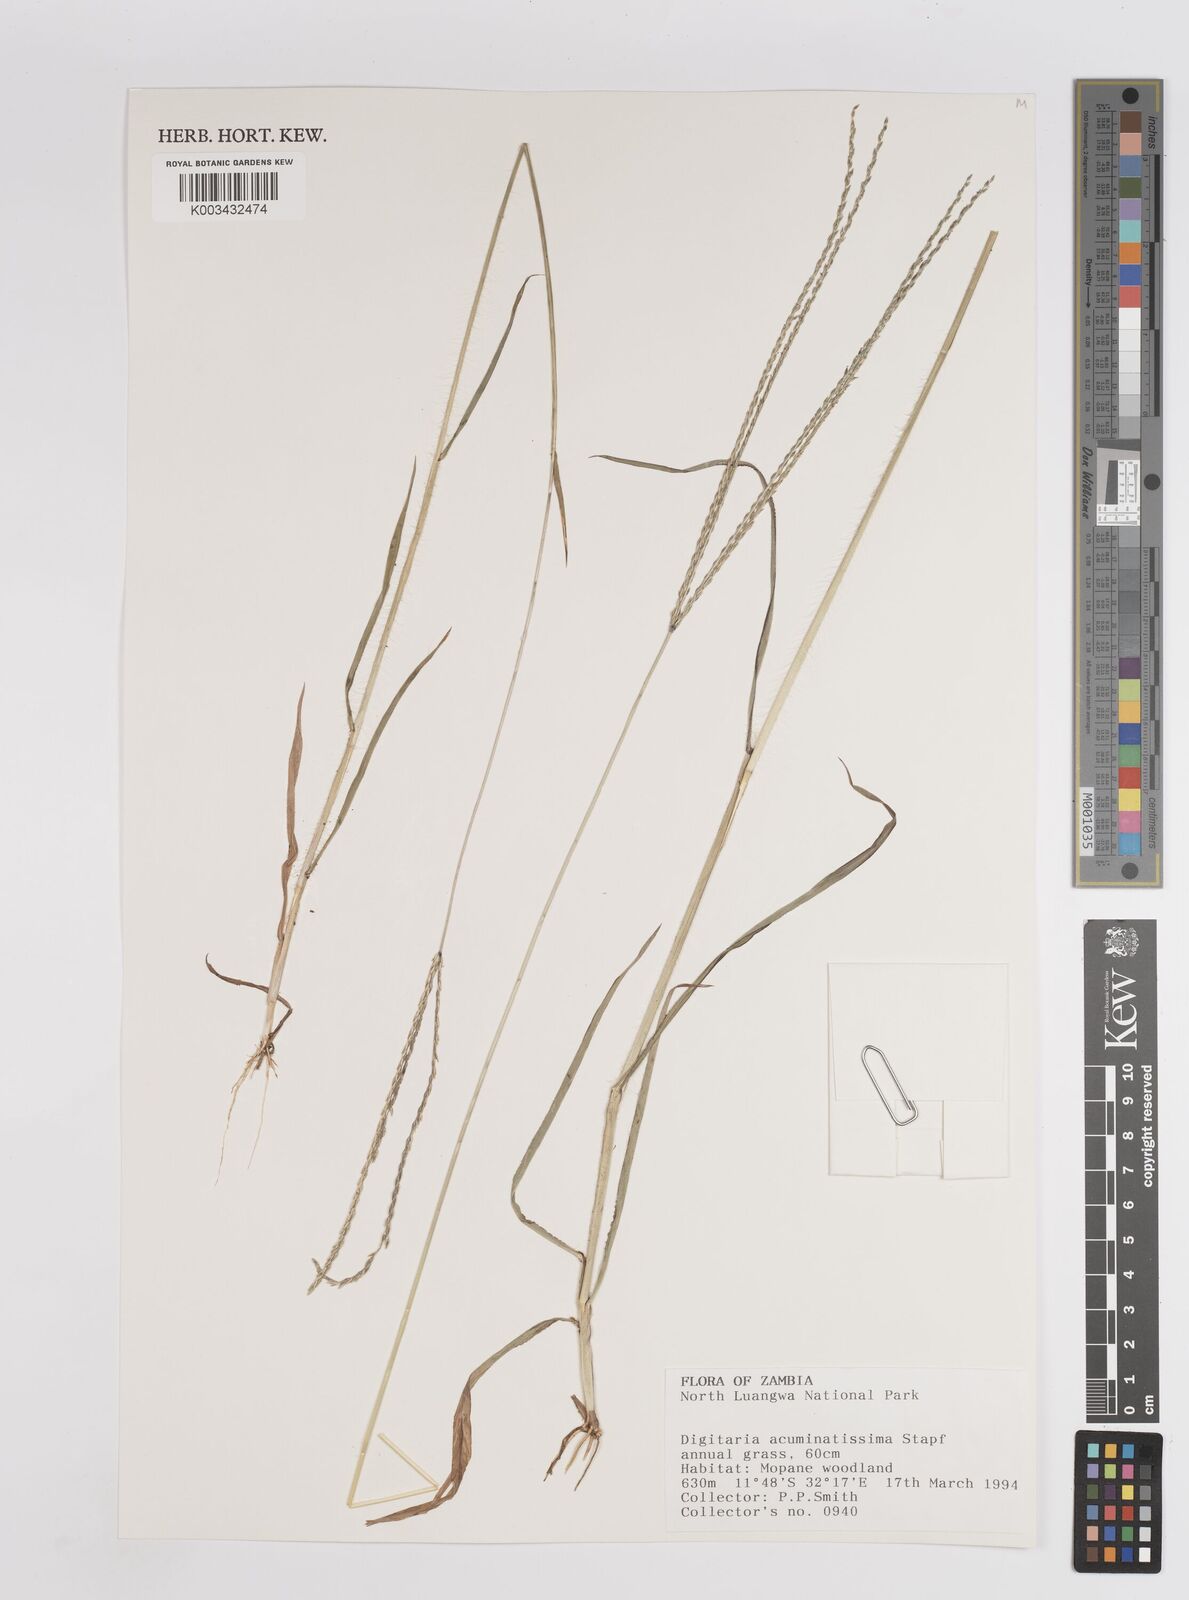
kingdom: Plantae
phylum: Tracheophyta
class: Liliopsida
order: Poales
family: Poaceae
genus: Digitaria
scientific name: Digitaria acuminatissima
